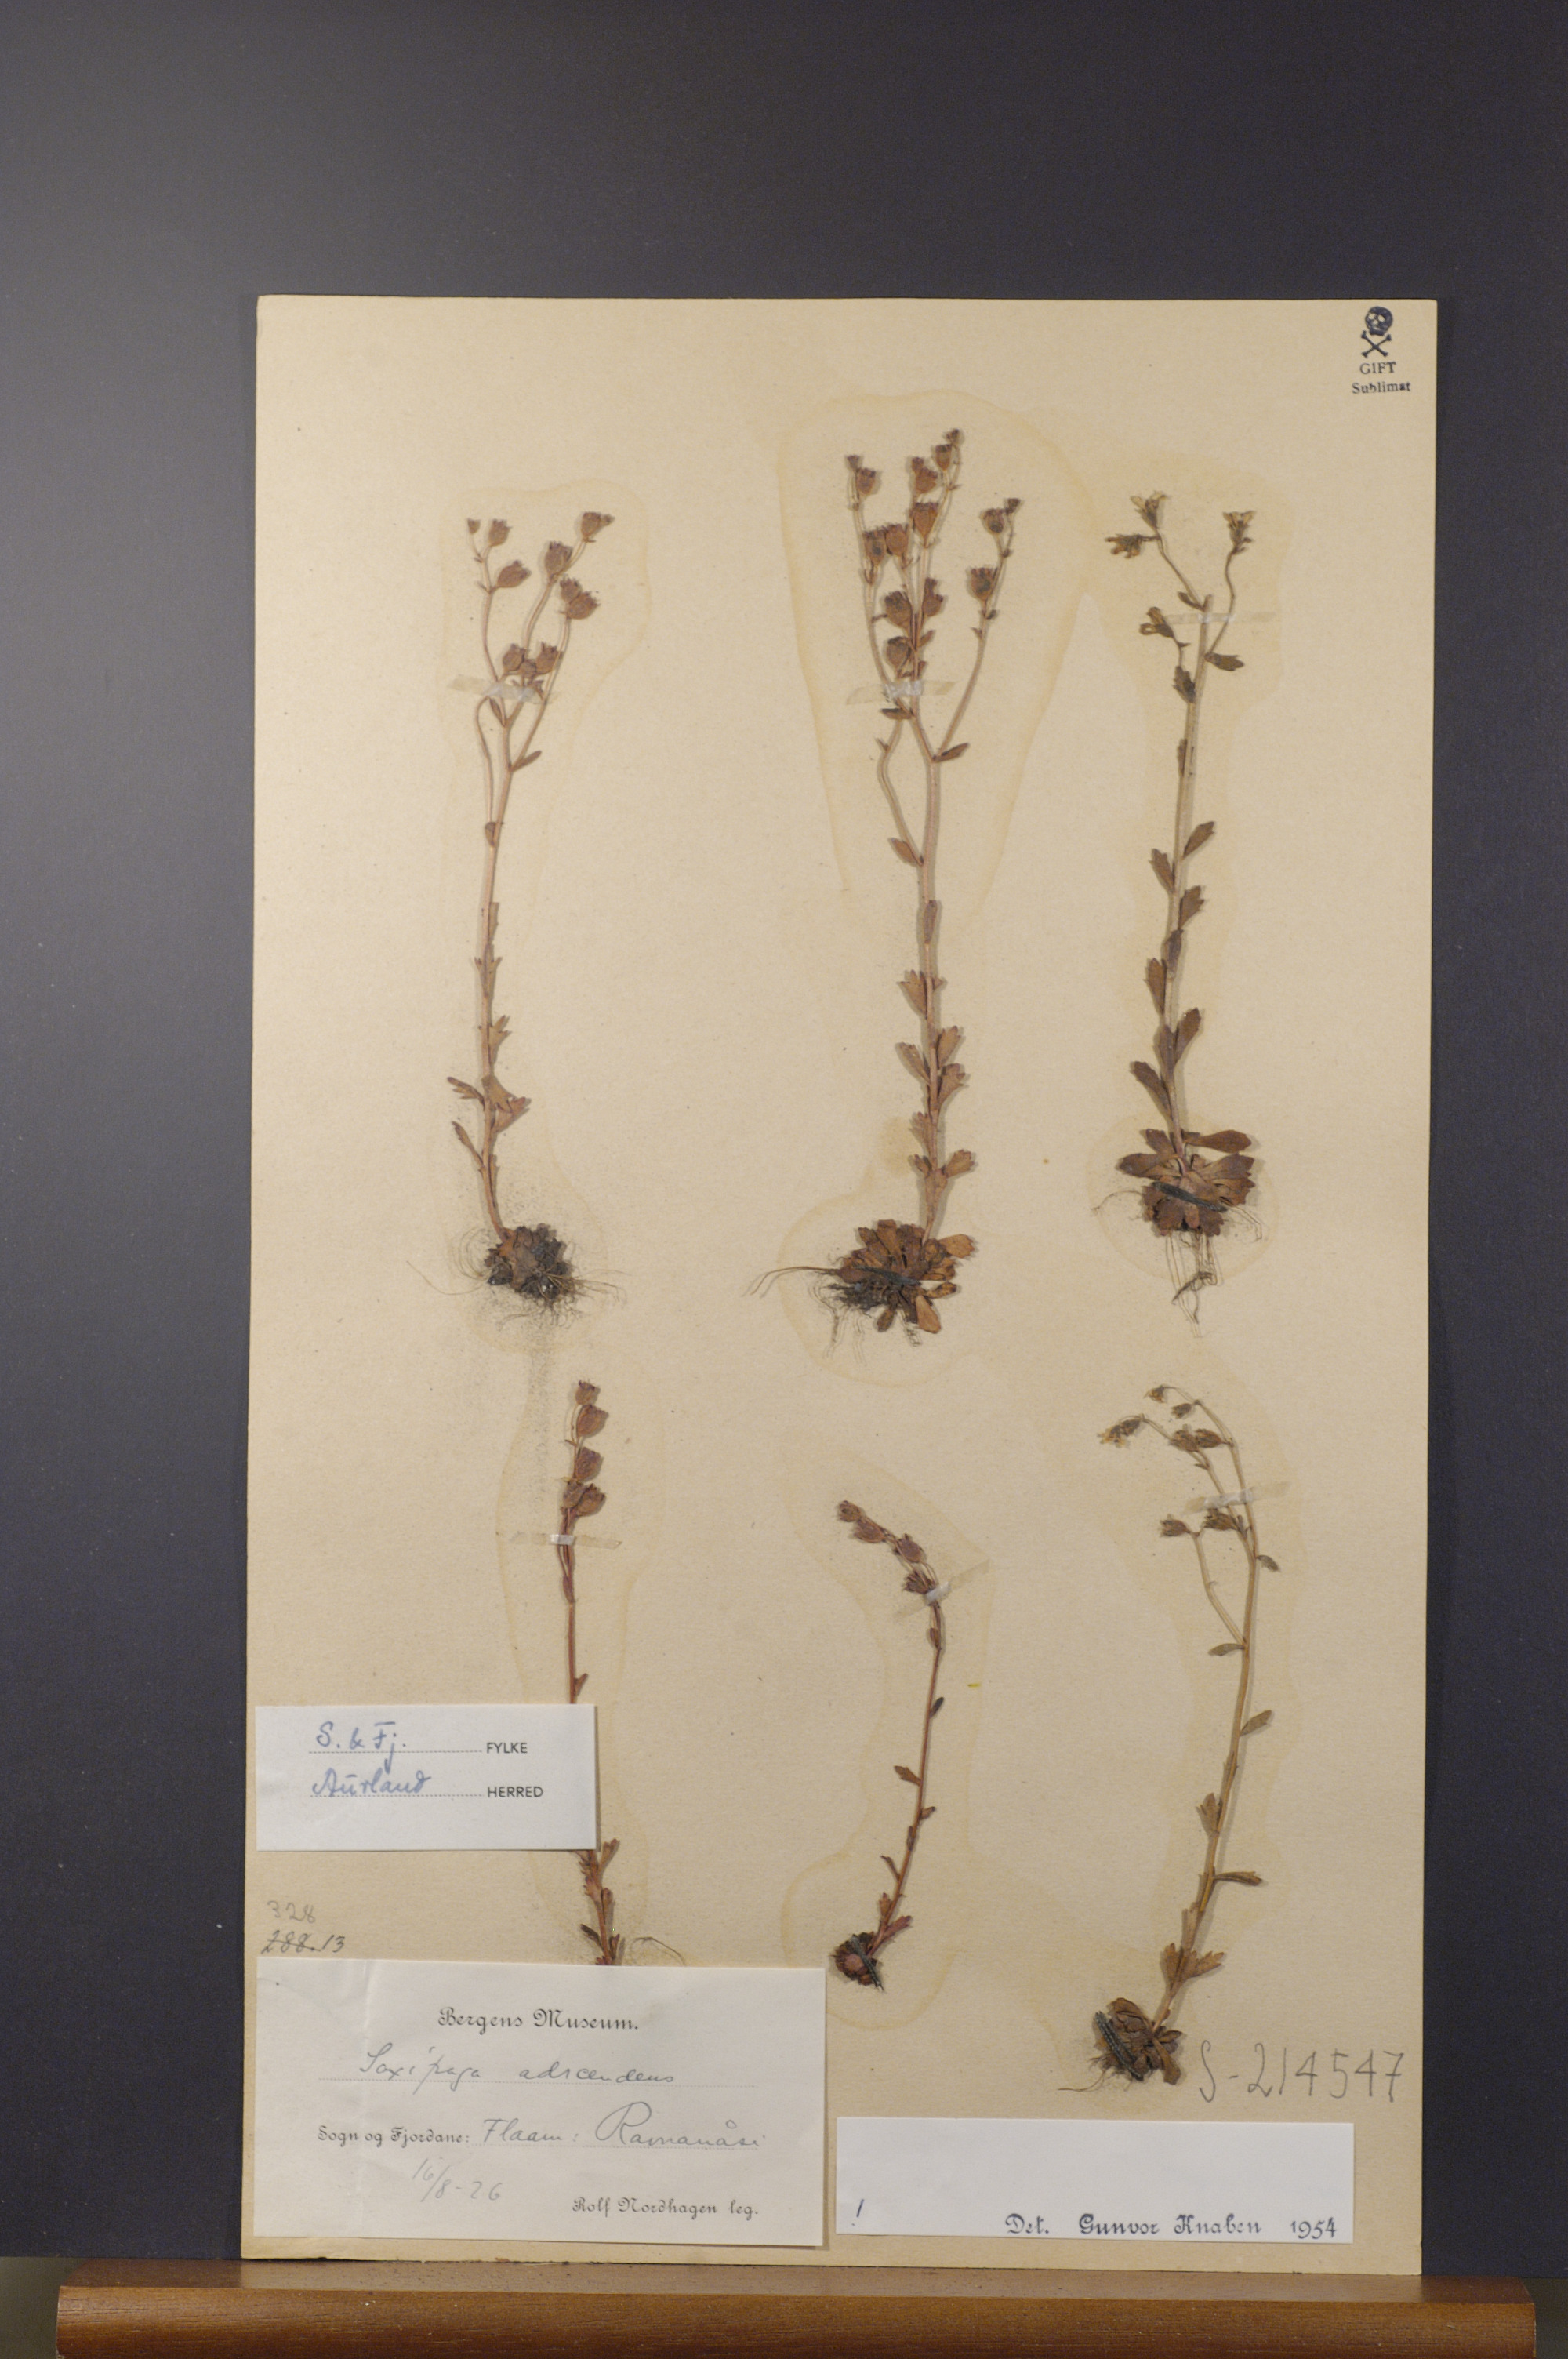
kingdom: Plantae
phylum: Tracheophyta
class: Magnoliopsida
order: Saxifragales
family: Saxifragaceae
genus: Saxifraga
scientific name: Saxifraga adscendens
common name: Ascending saxifrage
